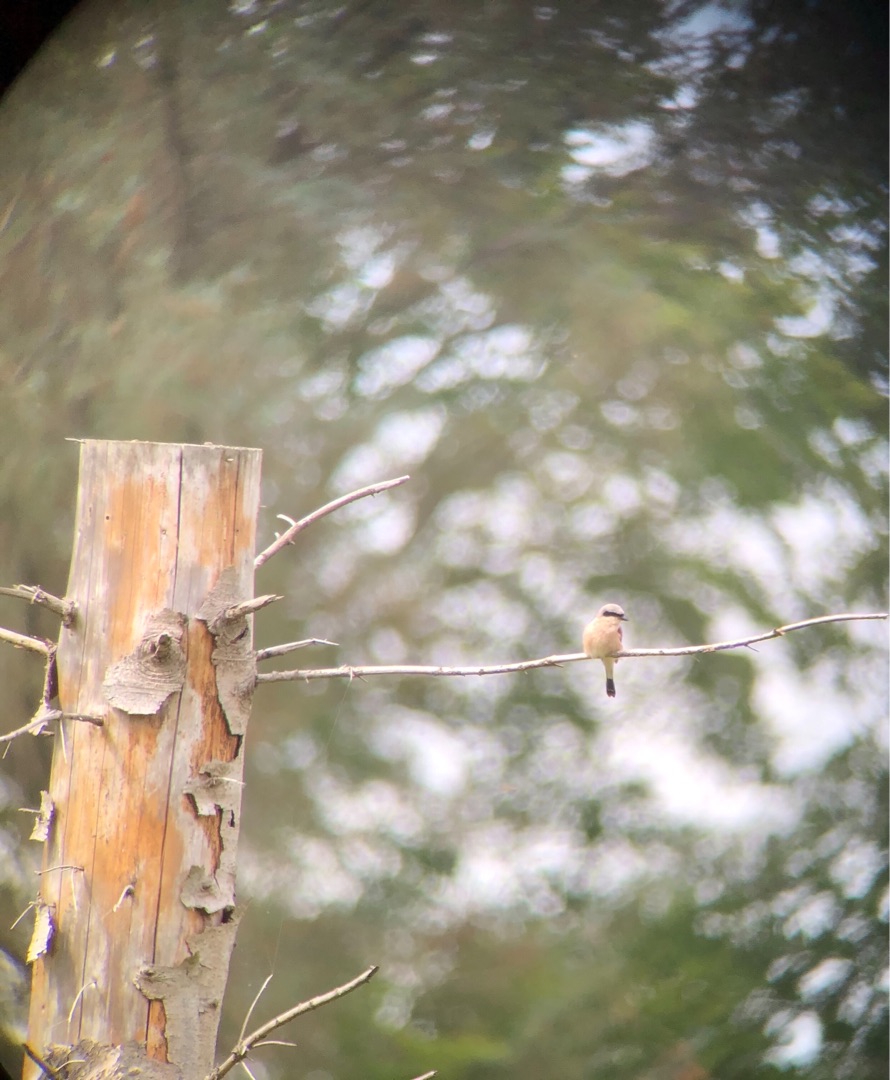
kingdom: Animalia
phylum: Chordata
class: Aves
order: Passeriformes
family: Laniidae
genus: Lanius
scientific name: Lanius collurio
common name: Rødrygget tornskade
